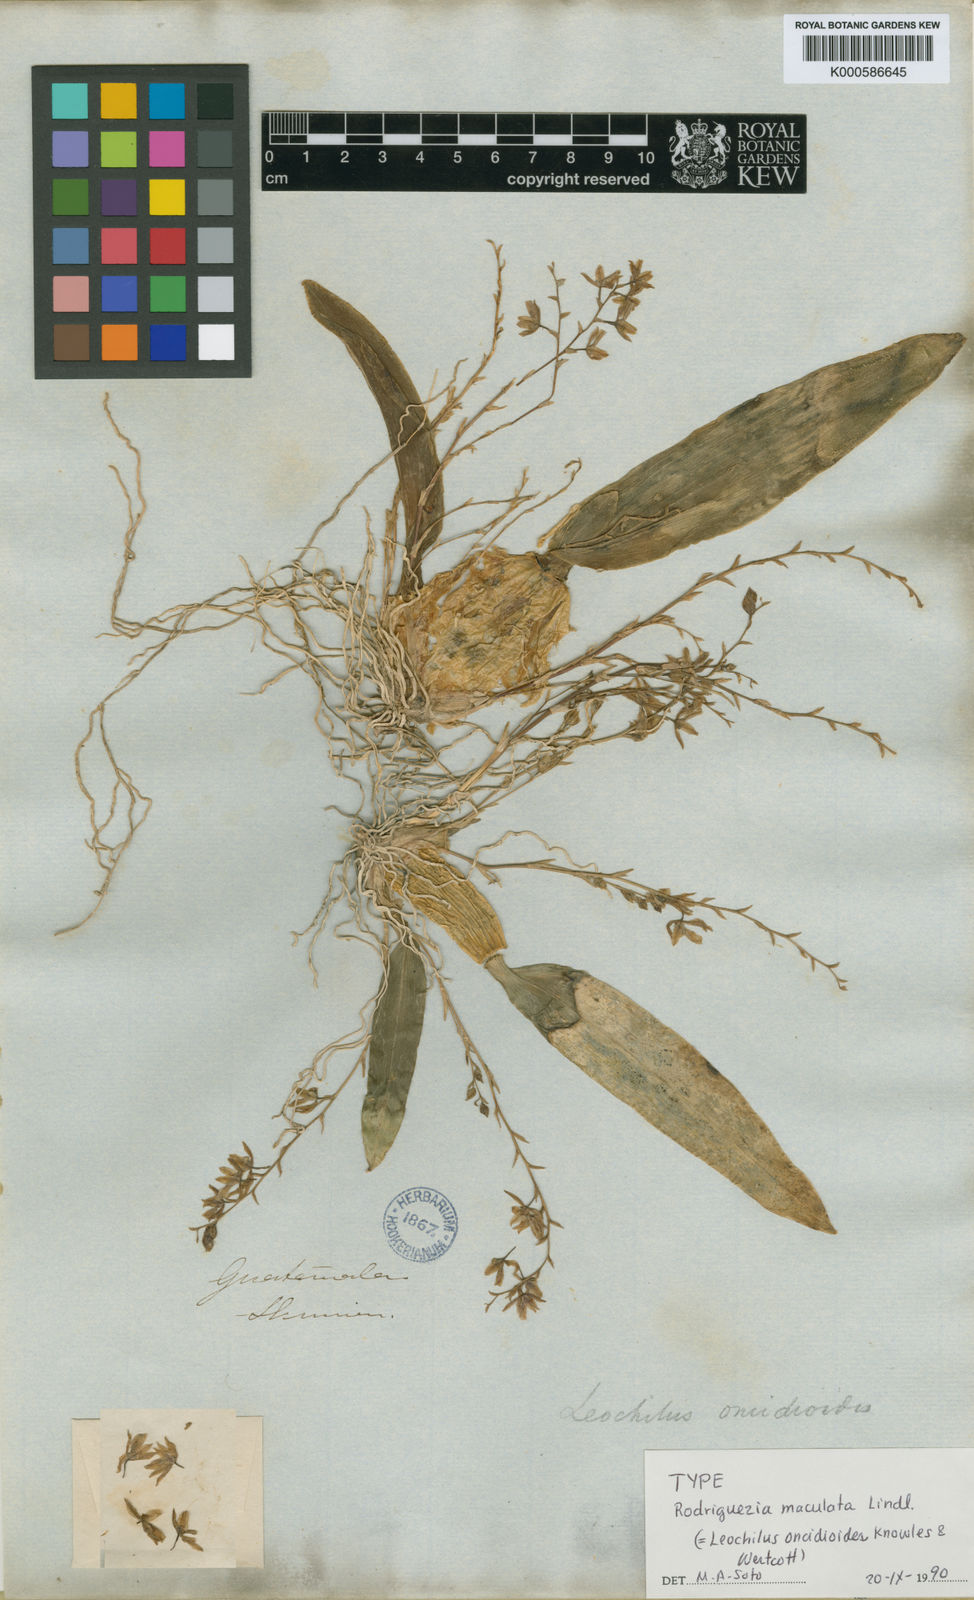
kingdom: Plantae
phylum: Tracheophyta
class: Liliopsida
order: Asparagales
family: Orchidaceae
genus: Leochilus
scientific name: Leochilus oncidioides
